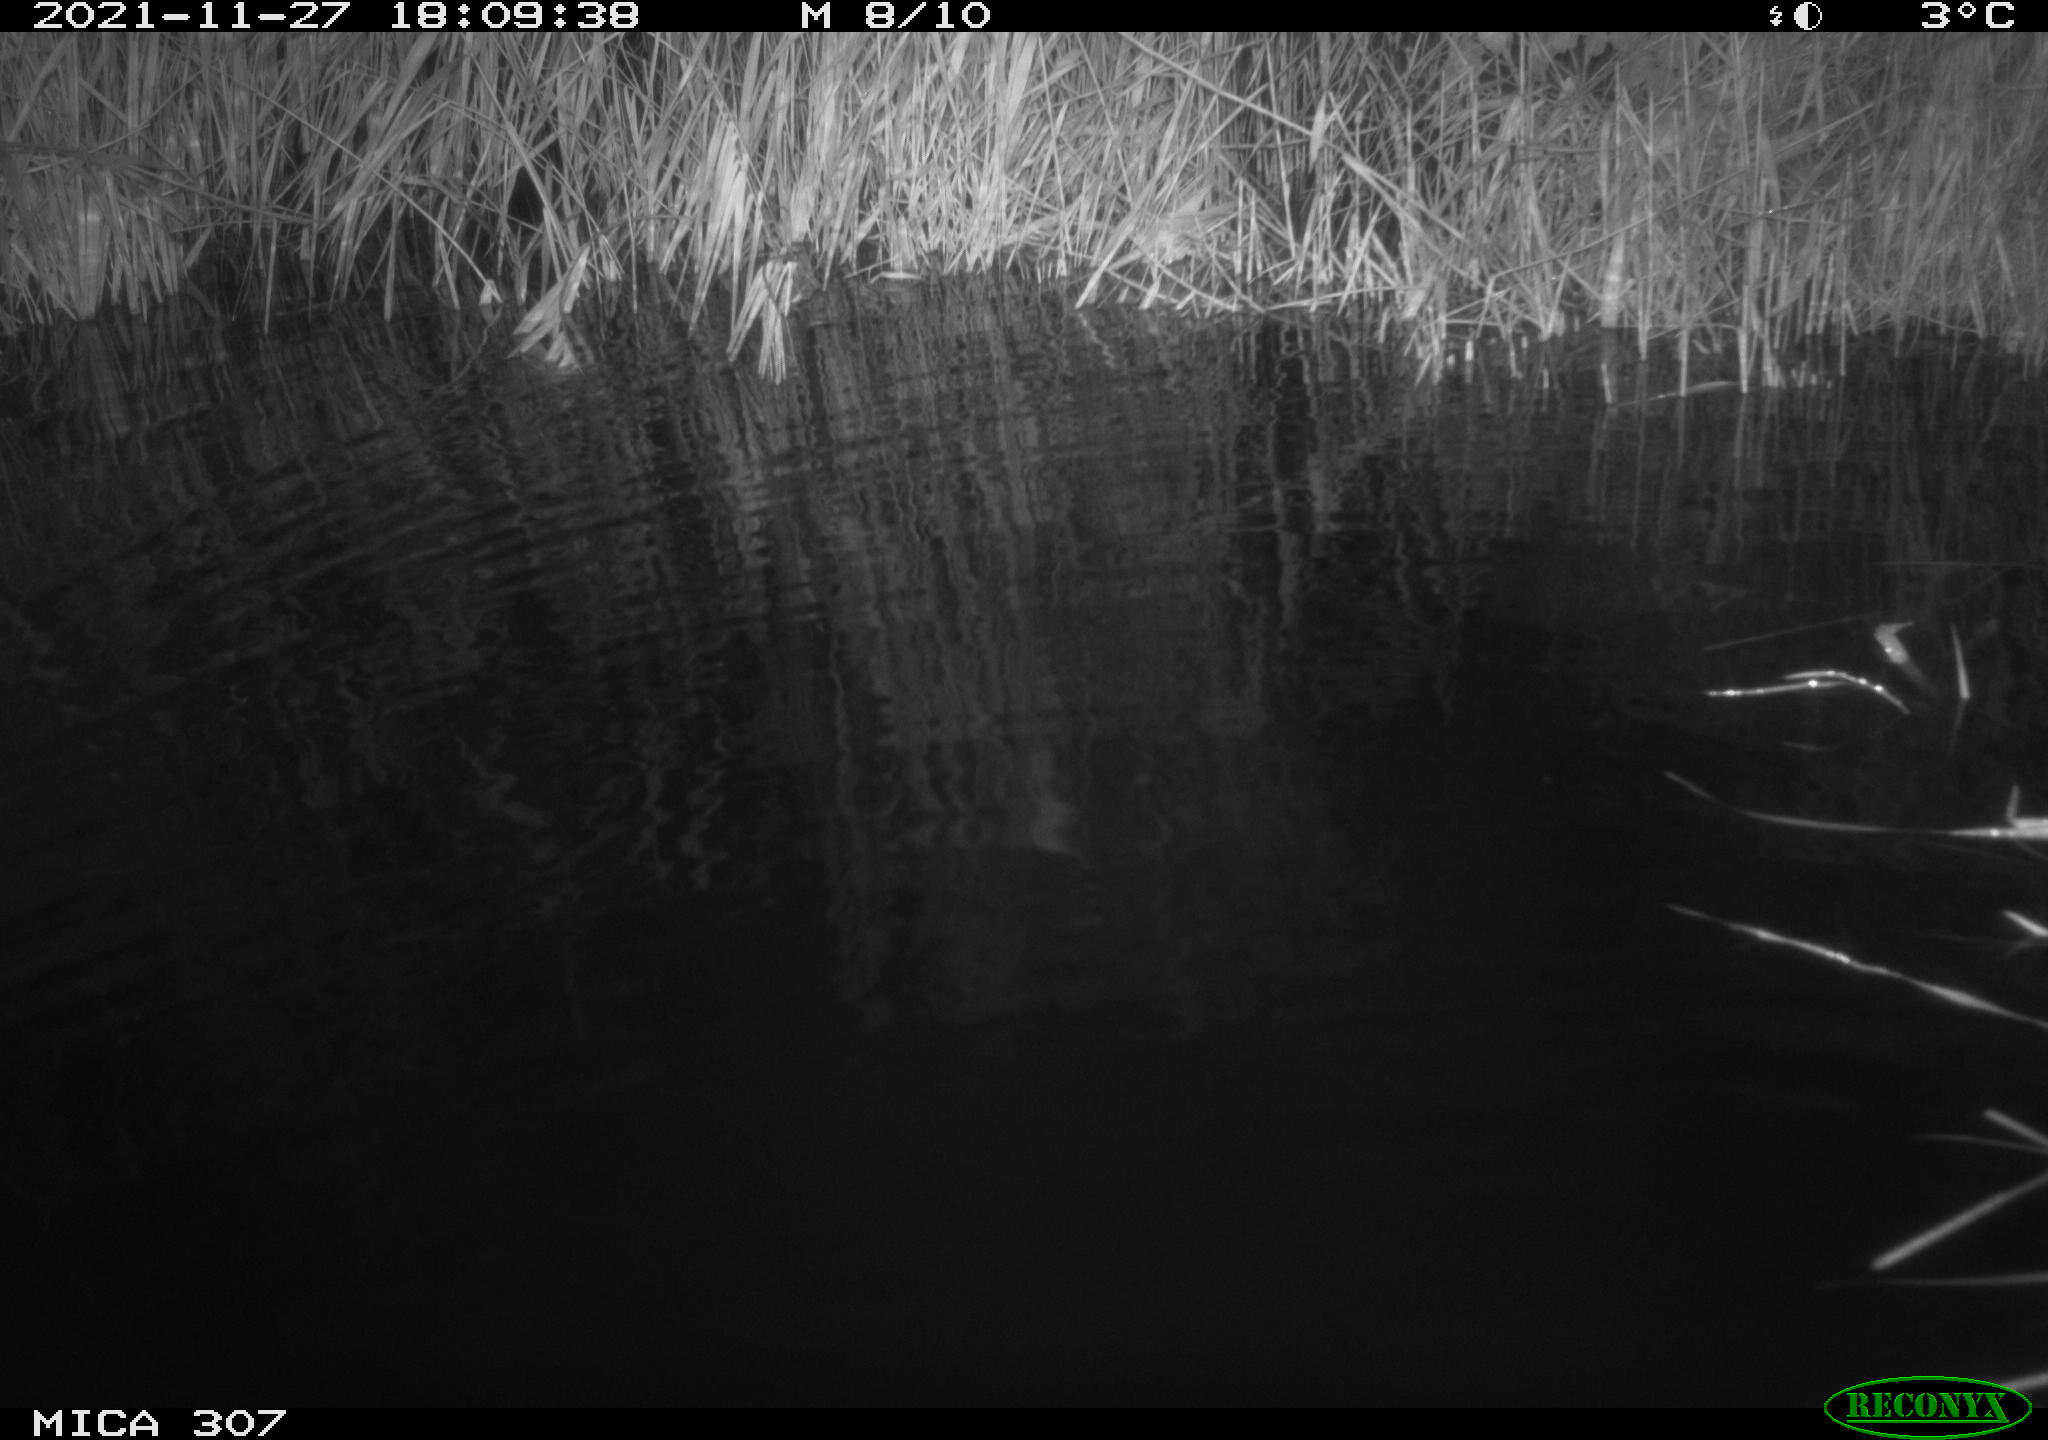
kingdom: Animalia
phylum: Chordata
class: Mammalia
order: Rodentia
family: Muridae
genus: Rattus
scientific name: Rattus norvegicus
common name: Brown rat
